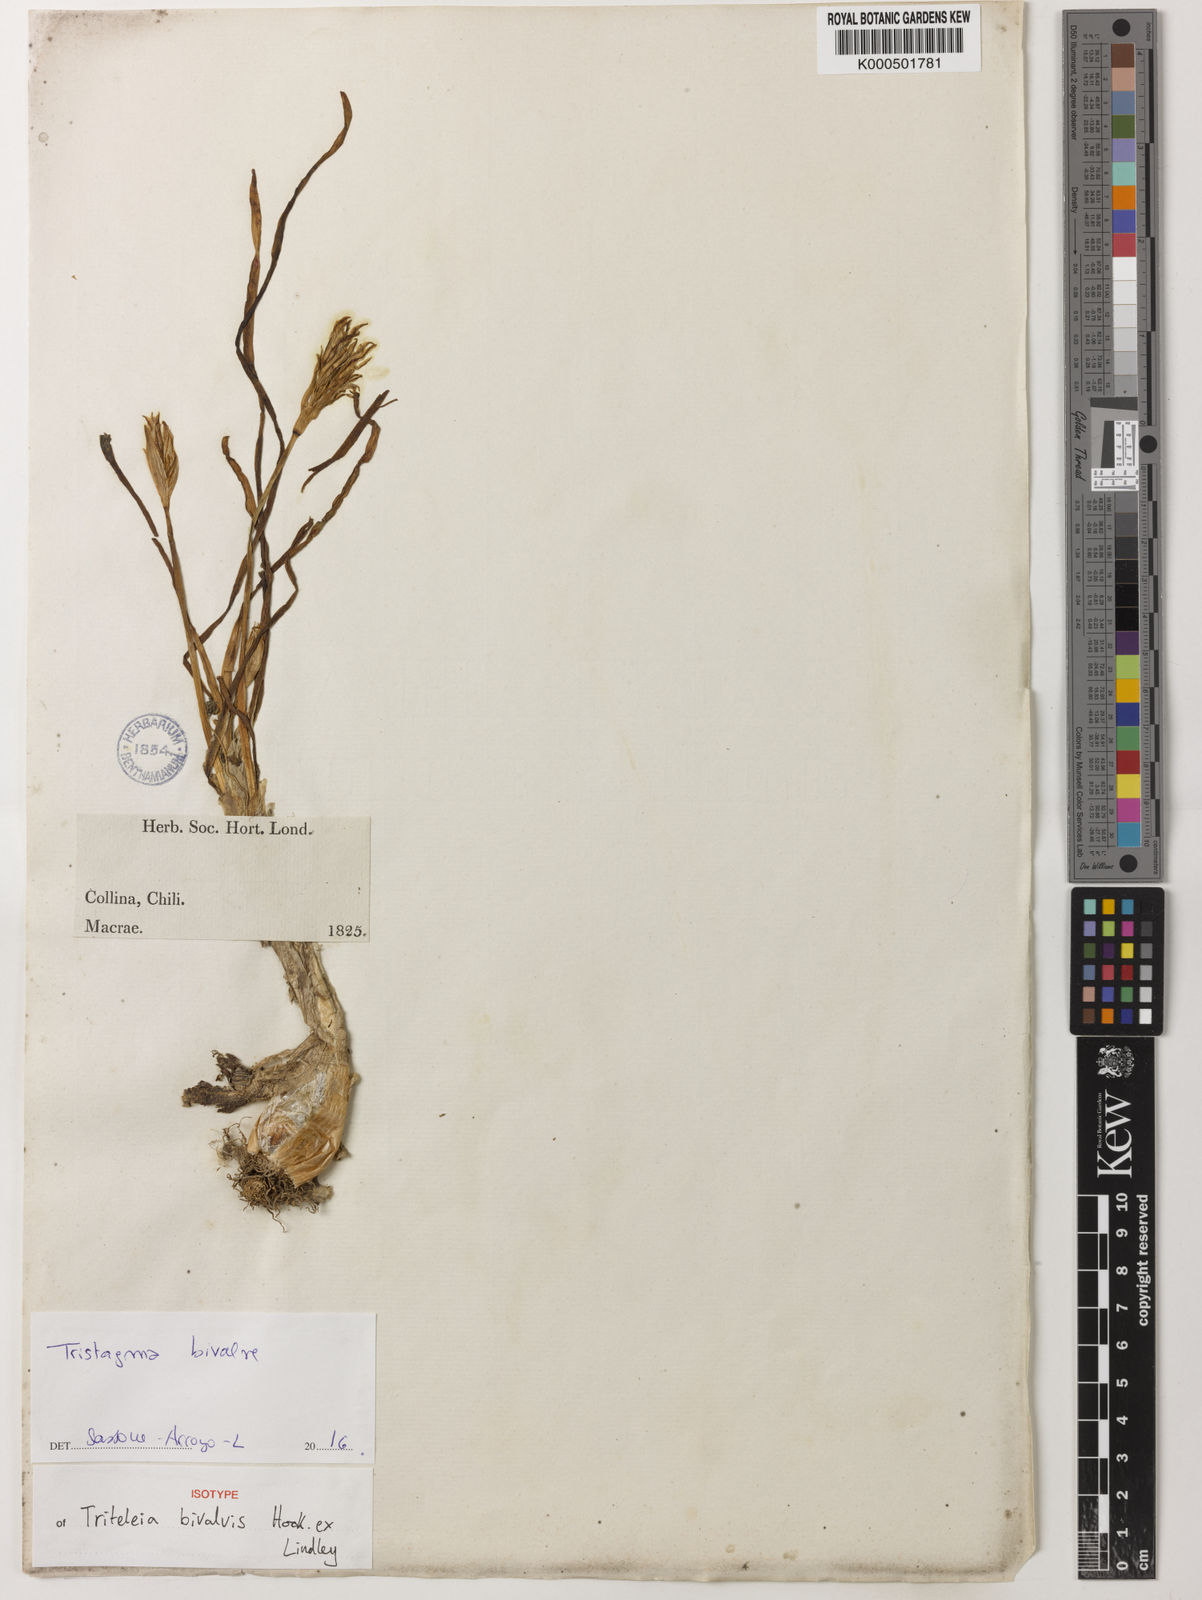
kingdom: Plantae
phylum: Tracheophyta
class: Liliopsida
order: Asparagales
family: Amaryllidaceae
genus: Tristagma
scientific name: Tristagma bivalve
